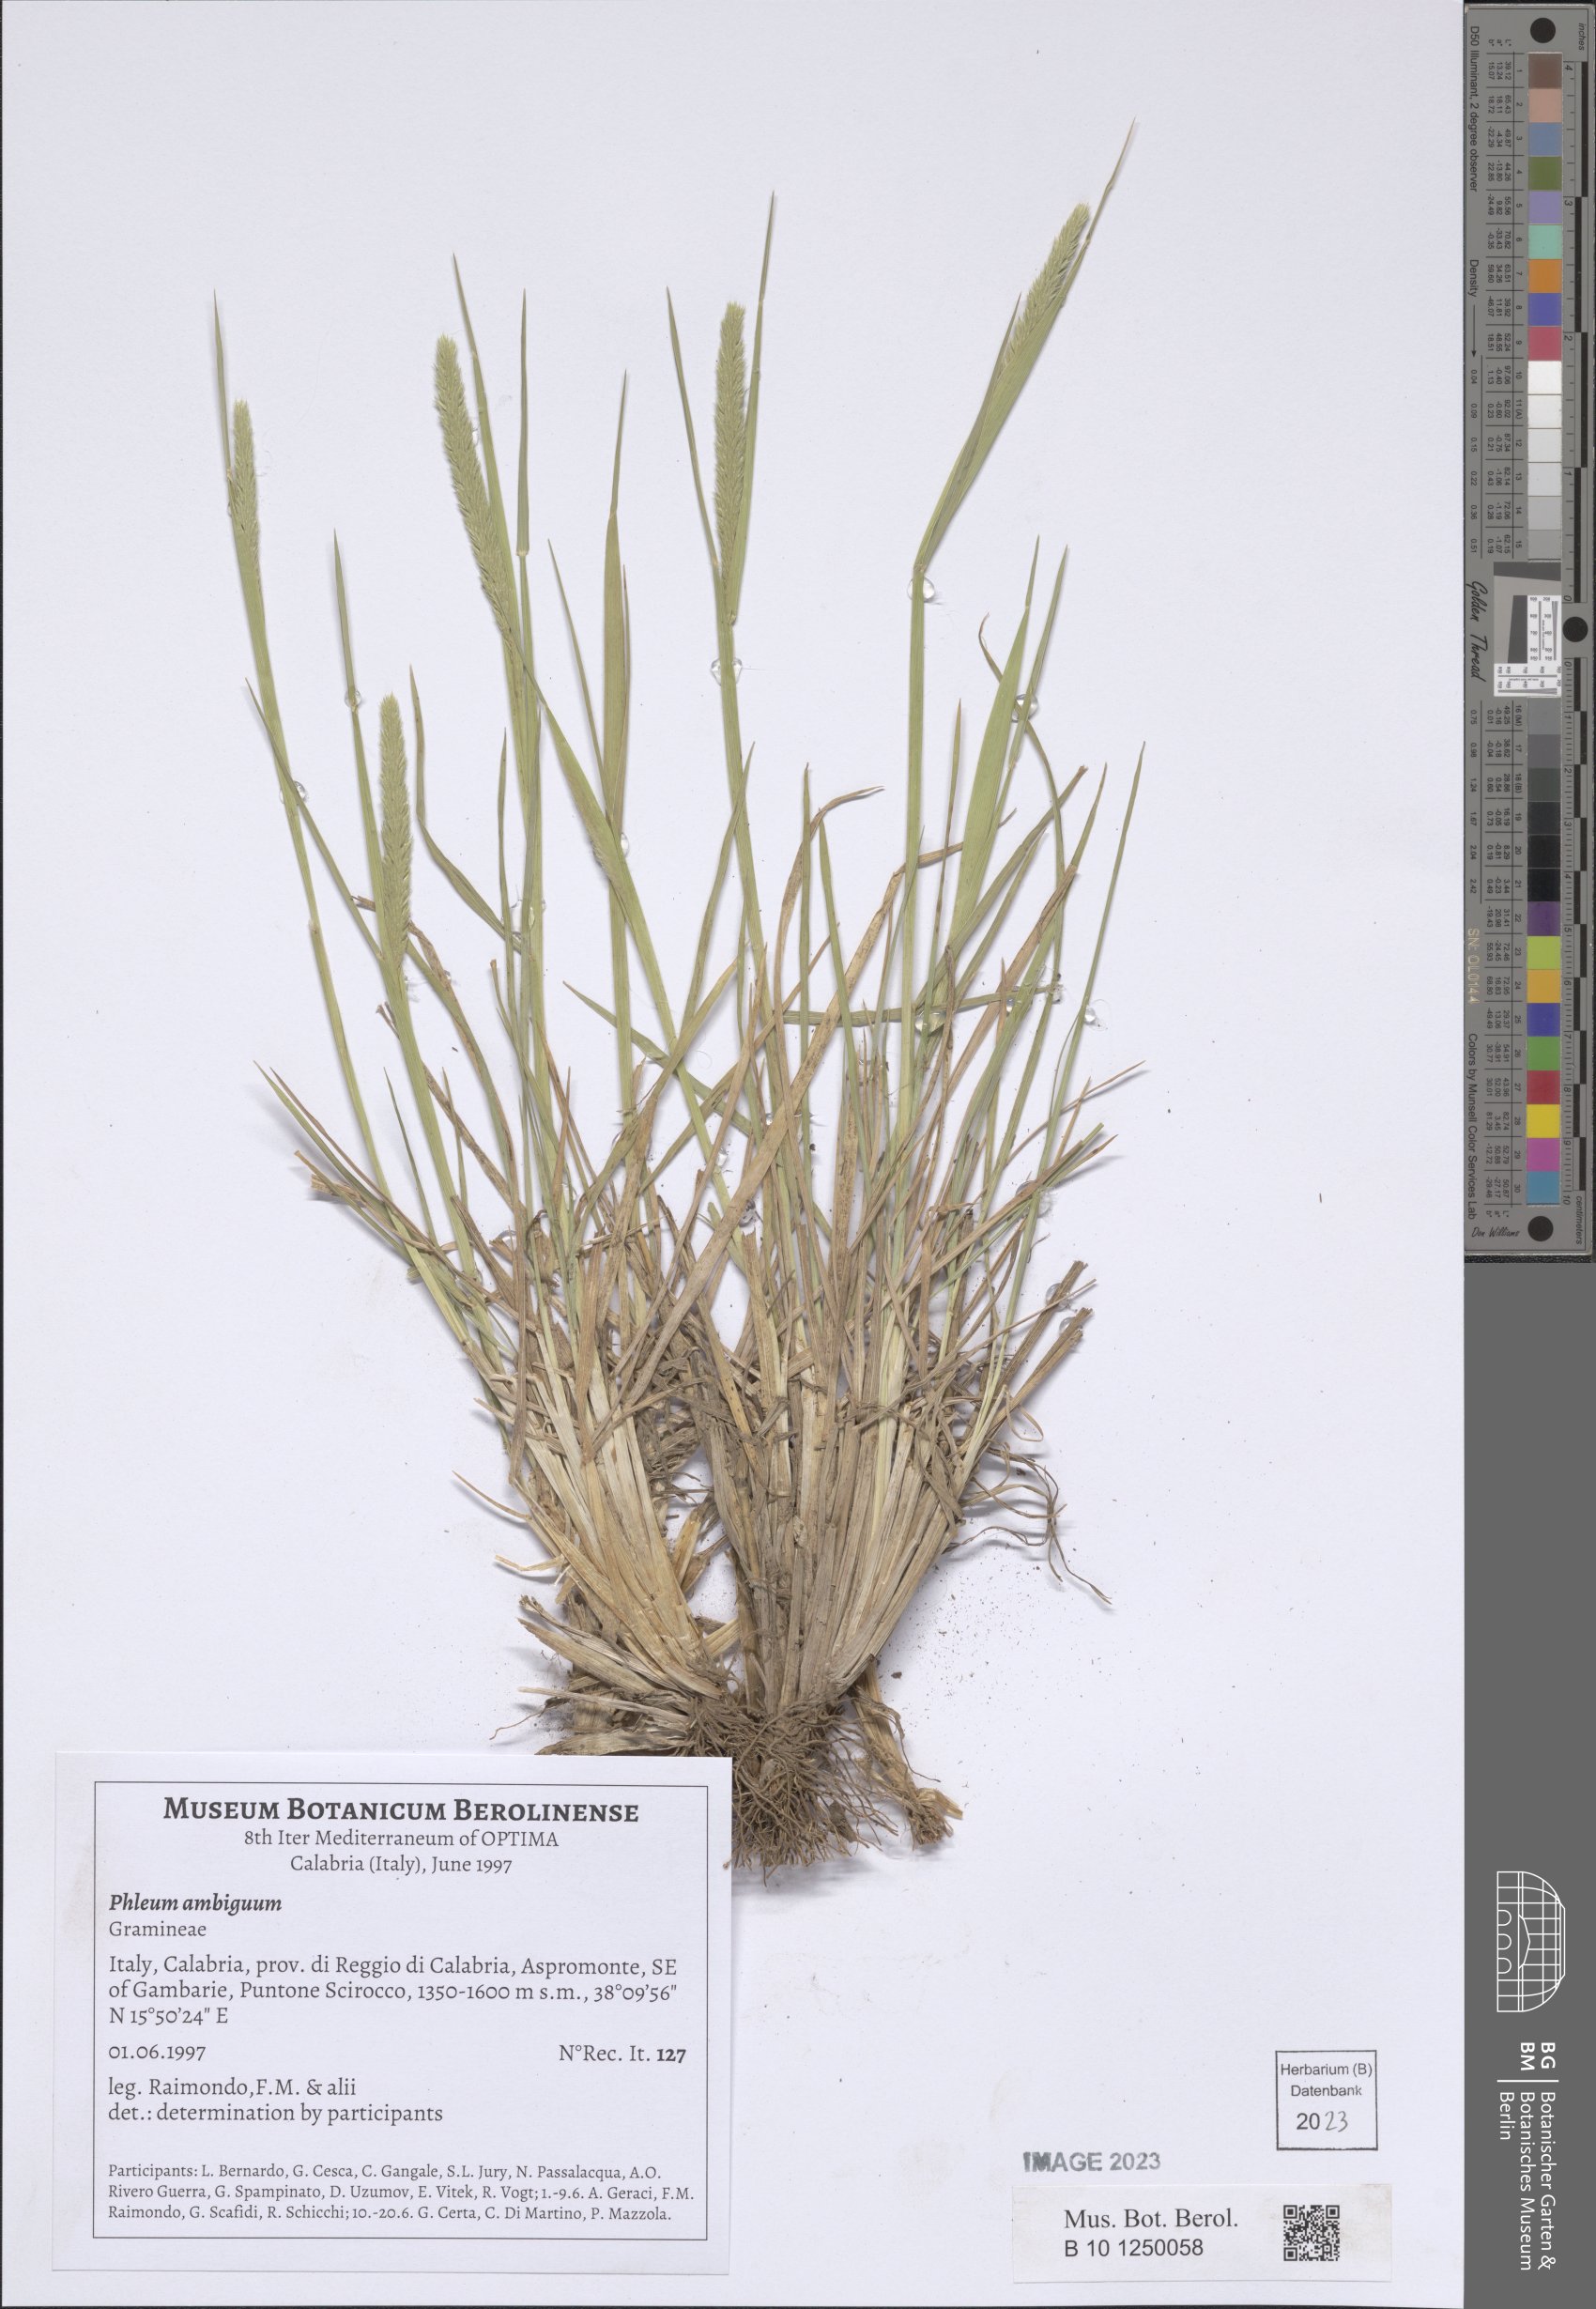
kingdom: Plantae
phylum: Tracheophyta
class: Liliopsida
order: Poales
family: Poaceae
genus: Phleum
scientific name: Phleum hirsutum
